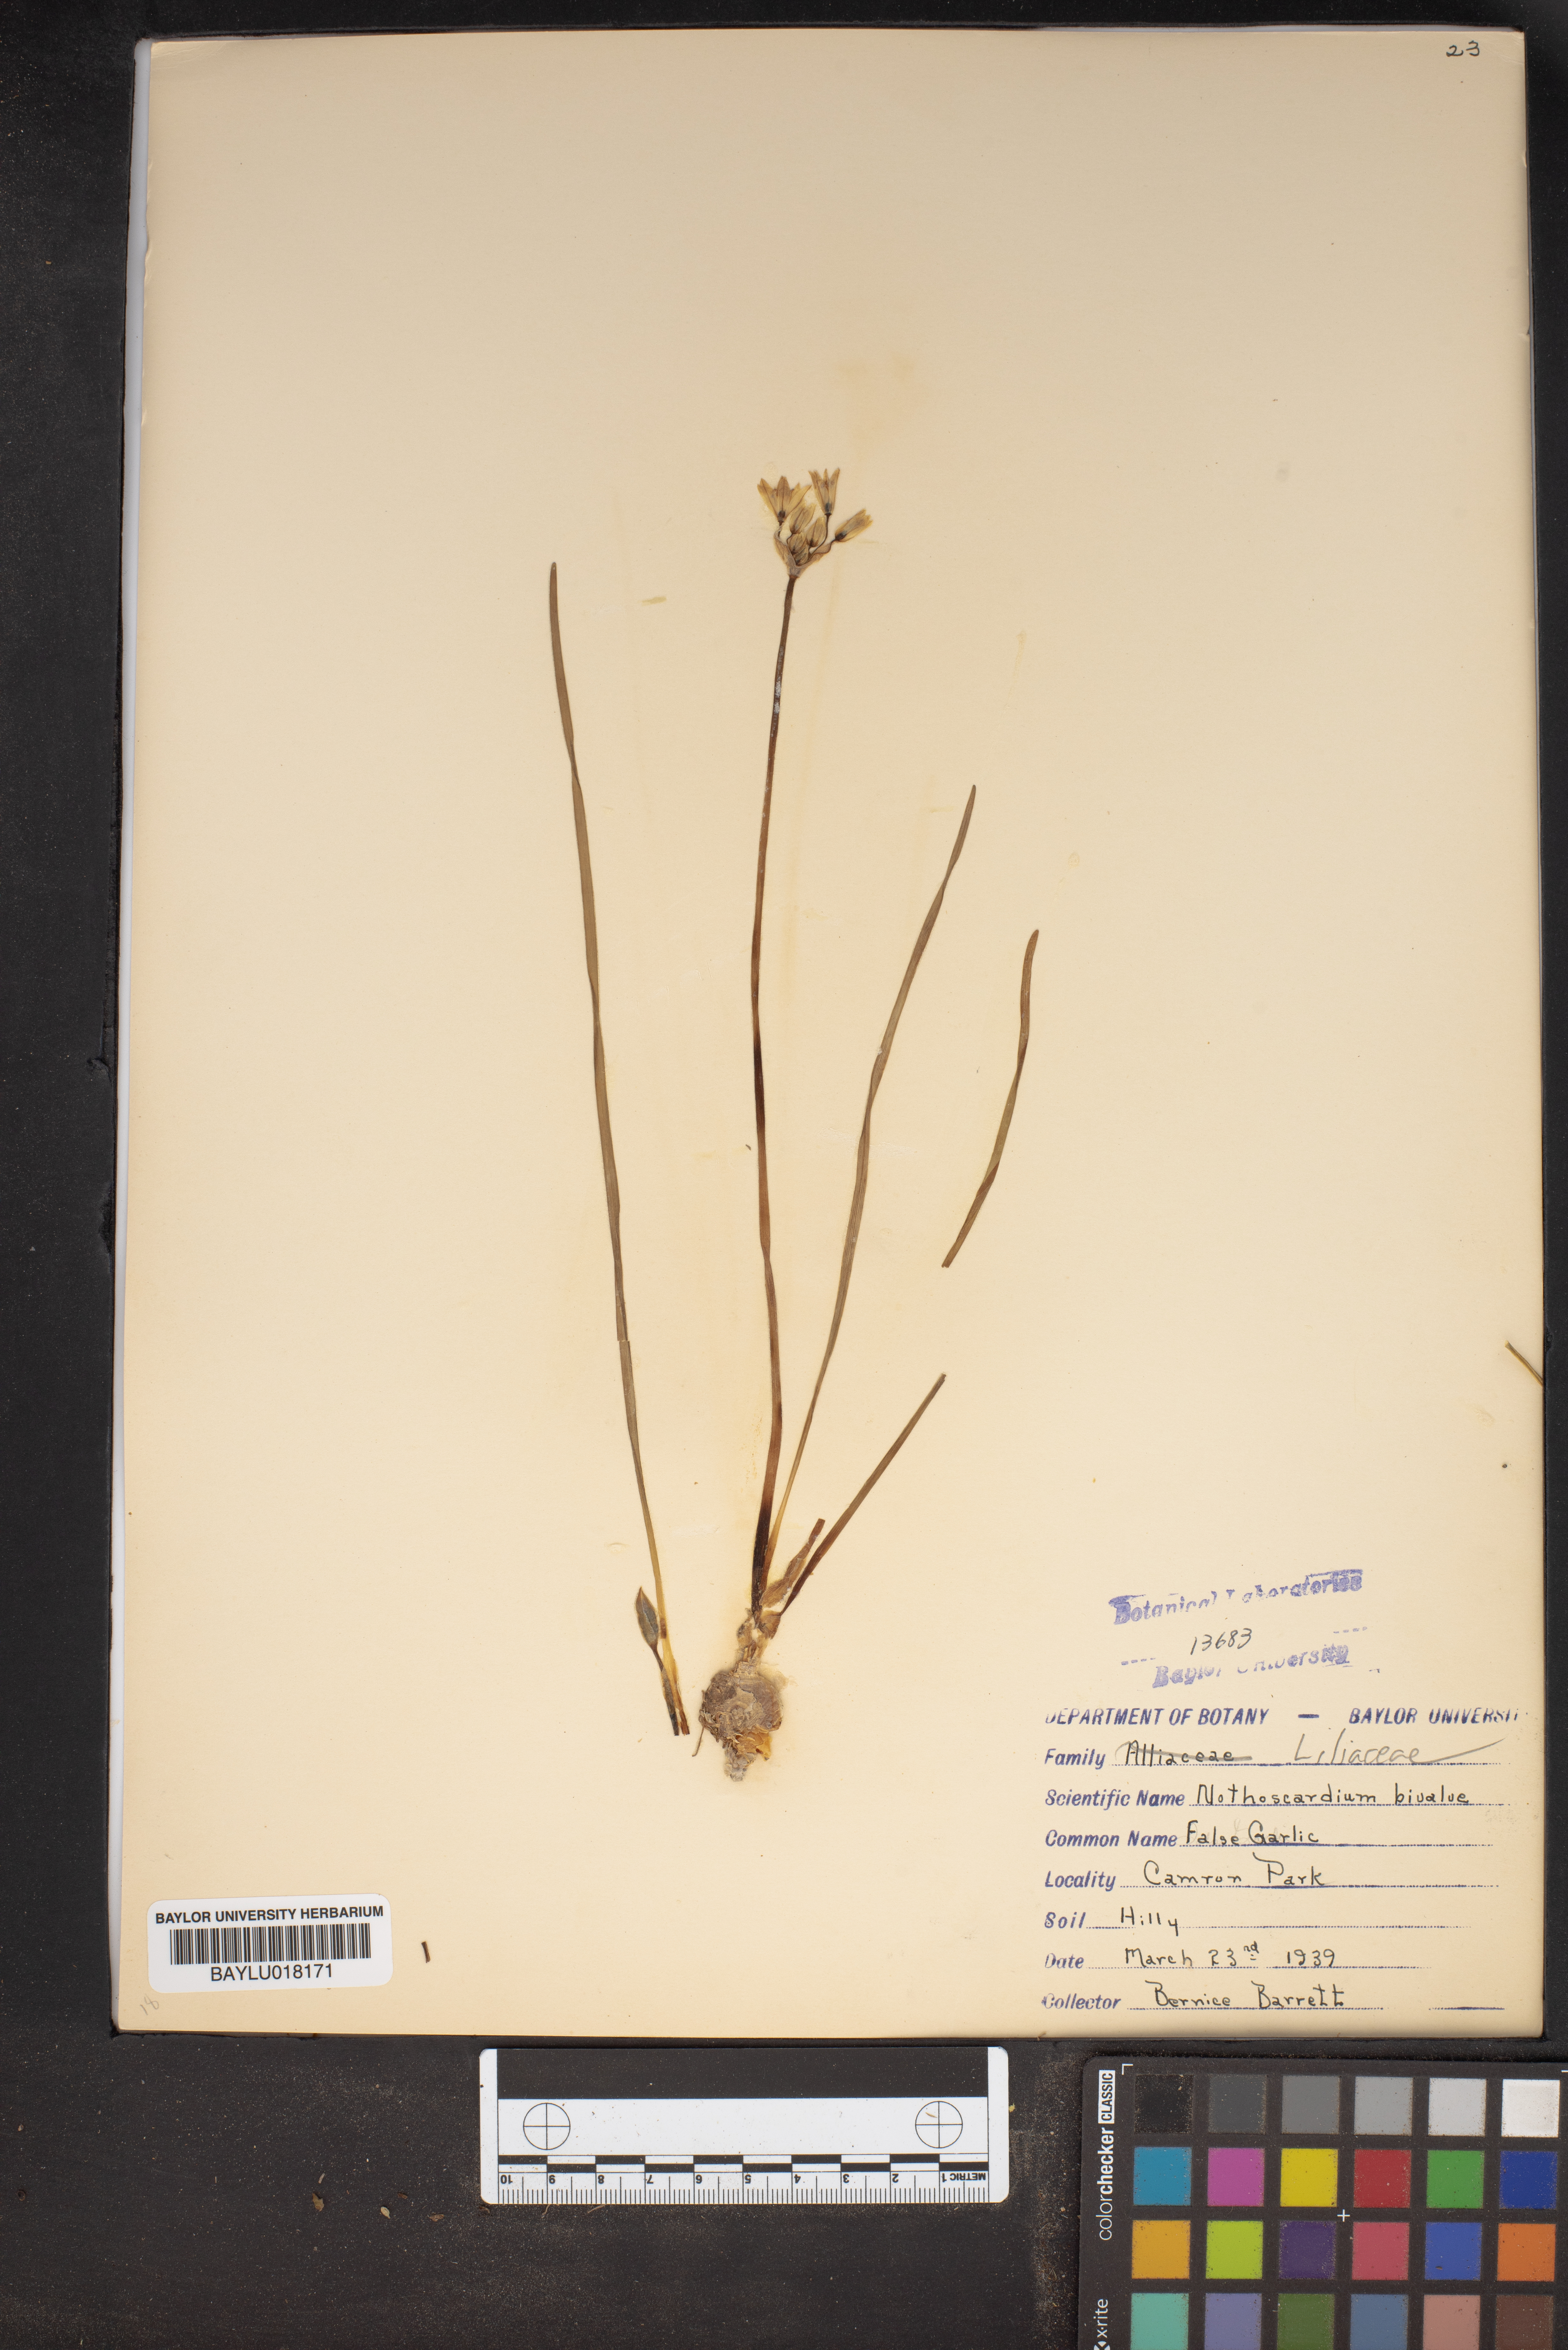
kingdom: Plantae
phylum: Tracheophyta
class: Liliopsida
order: Asparagales
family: Amaryllidaceae
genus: Nothoscordum
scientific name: Nothoscordum bivalve
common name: Crow-poison
